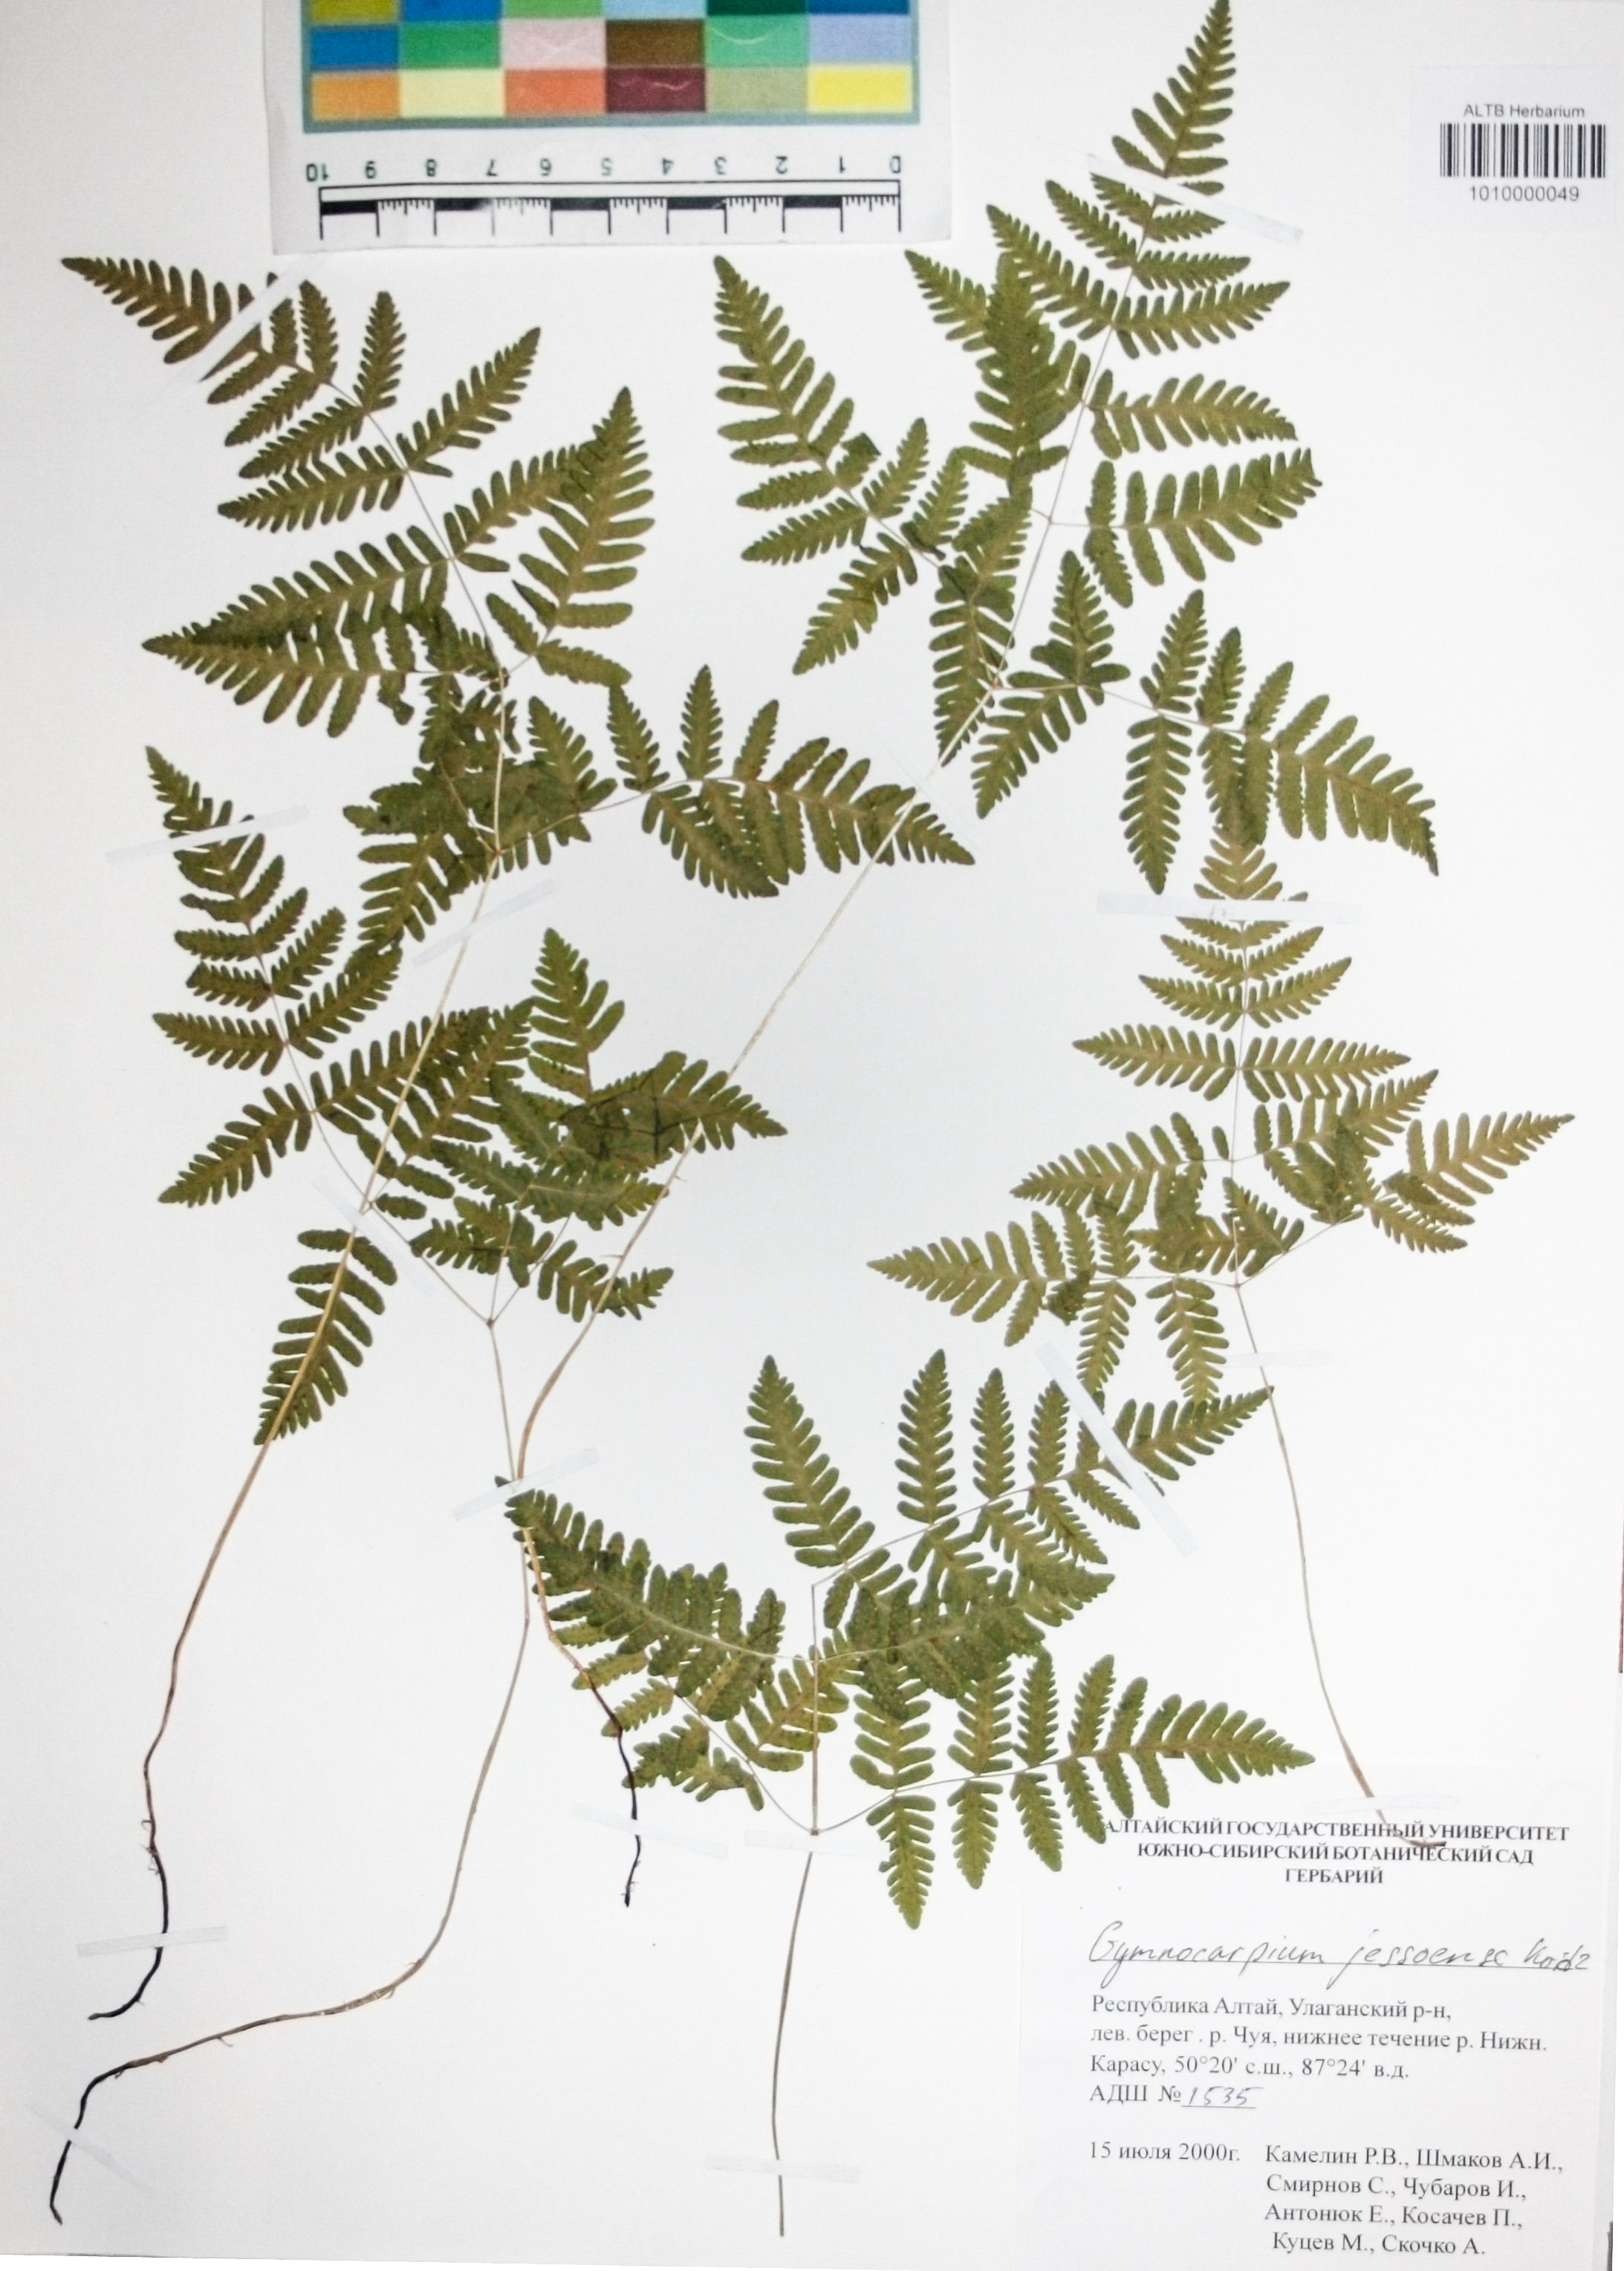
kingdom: Plantae
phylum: Tracheophyta
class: Polypodiopsida
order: Polypodiales
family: Cystopteridaceae
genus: Gymnocarpium
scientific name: Gymnocarpium jessoense
